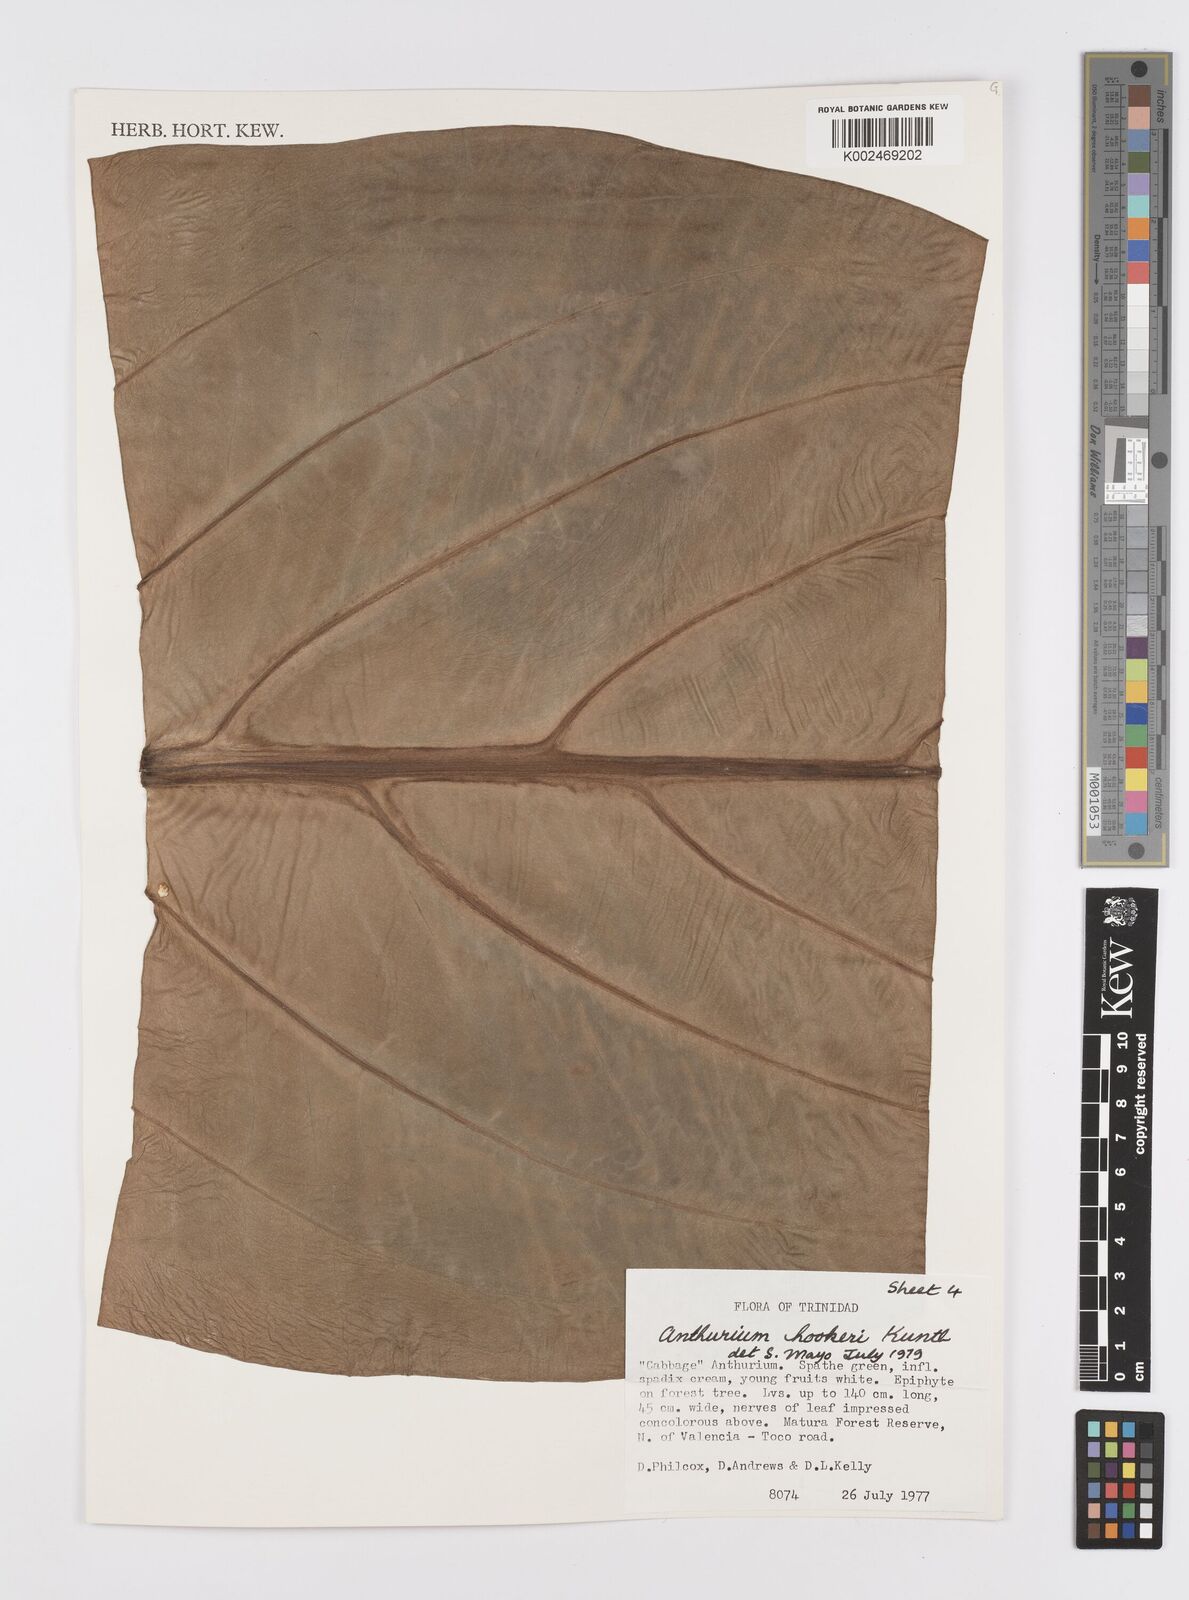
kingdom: Plantae
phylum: Tracheophyta
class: Liliopsida
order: Alismatales
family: Araceae
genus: Anthurium
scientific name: Anthurium hookeri
